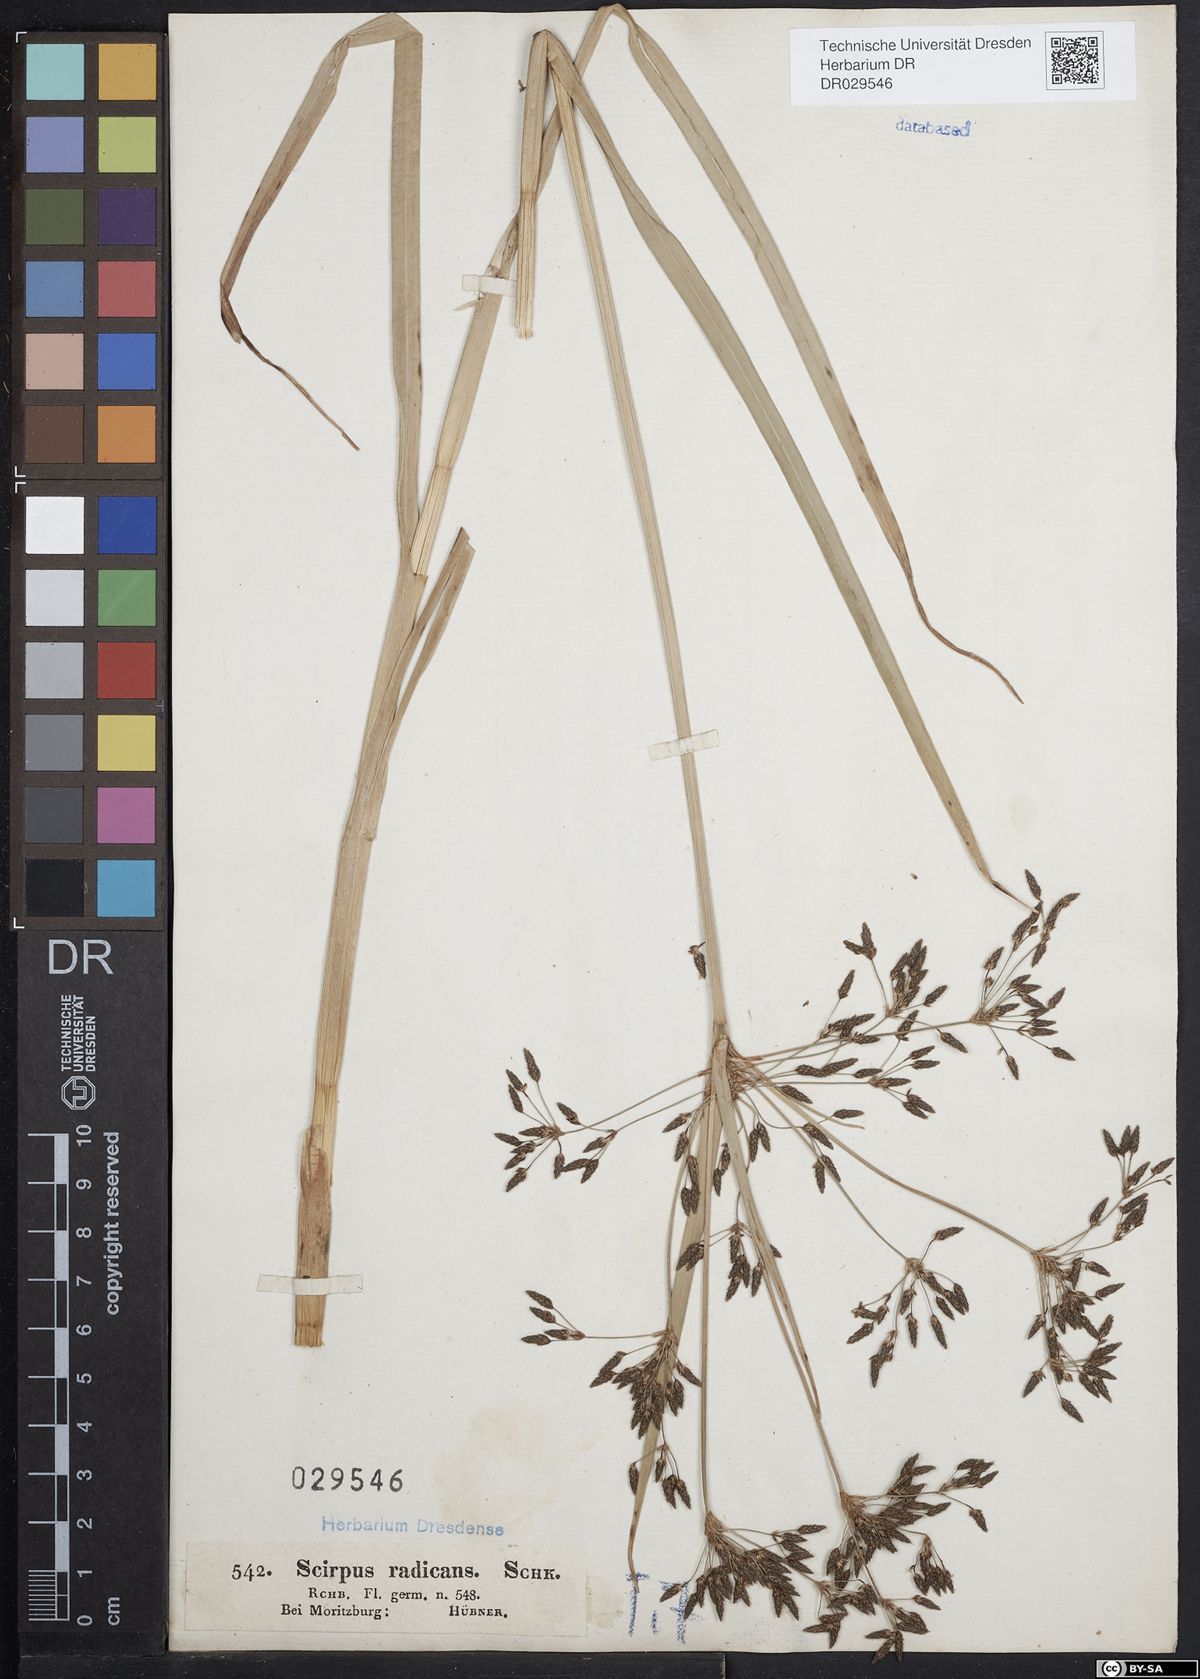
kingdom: Plantae
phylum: Tracheophyta
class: Liliopsida
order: Poales
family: Cyperaceae
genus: Scirpus
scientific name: Scirpus radicans
